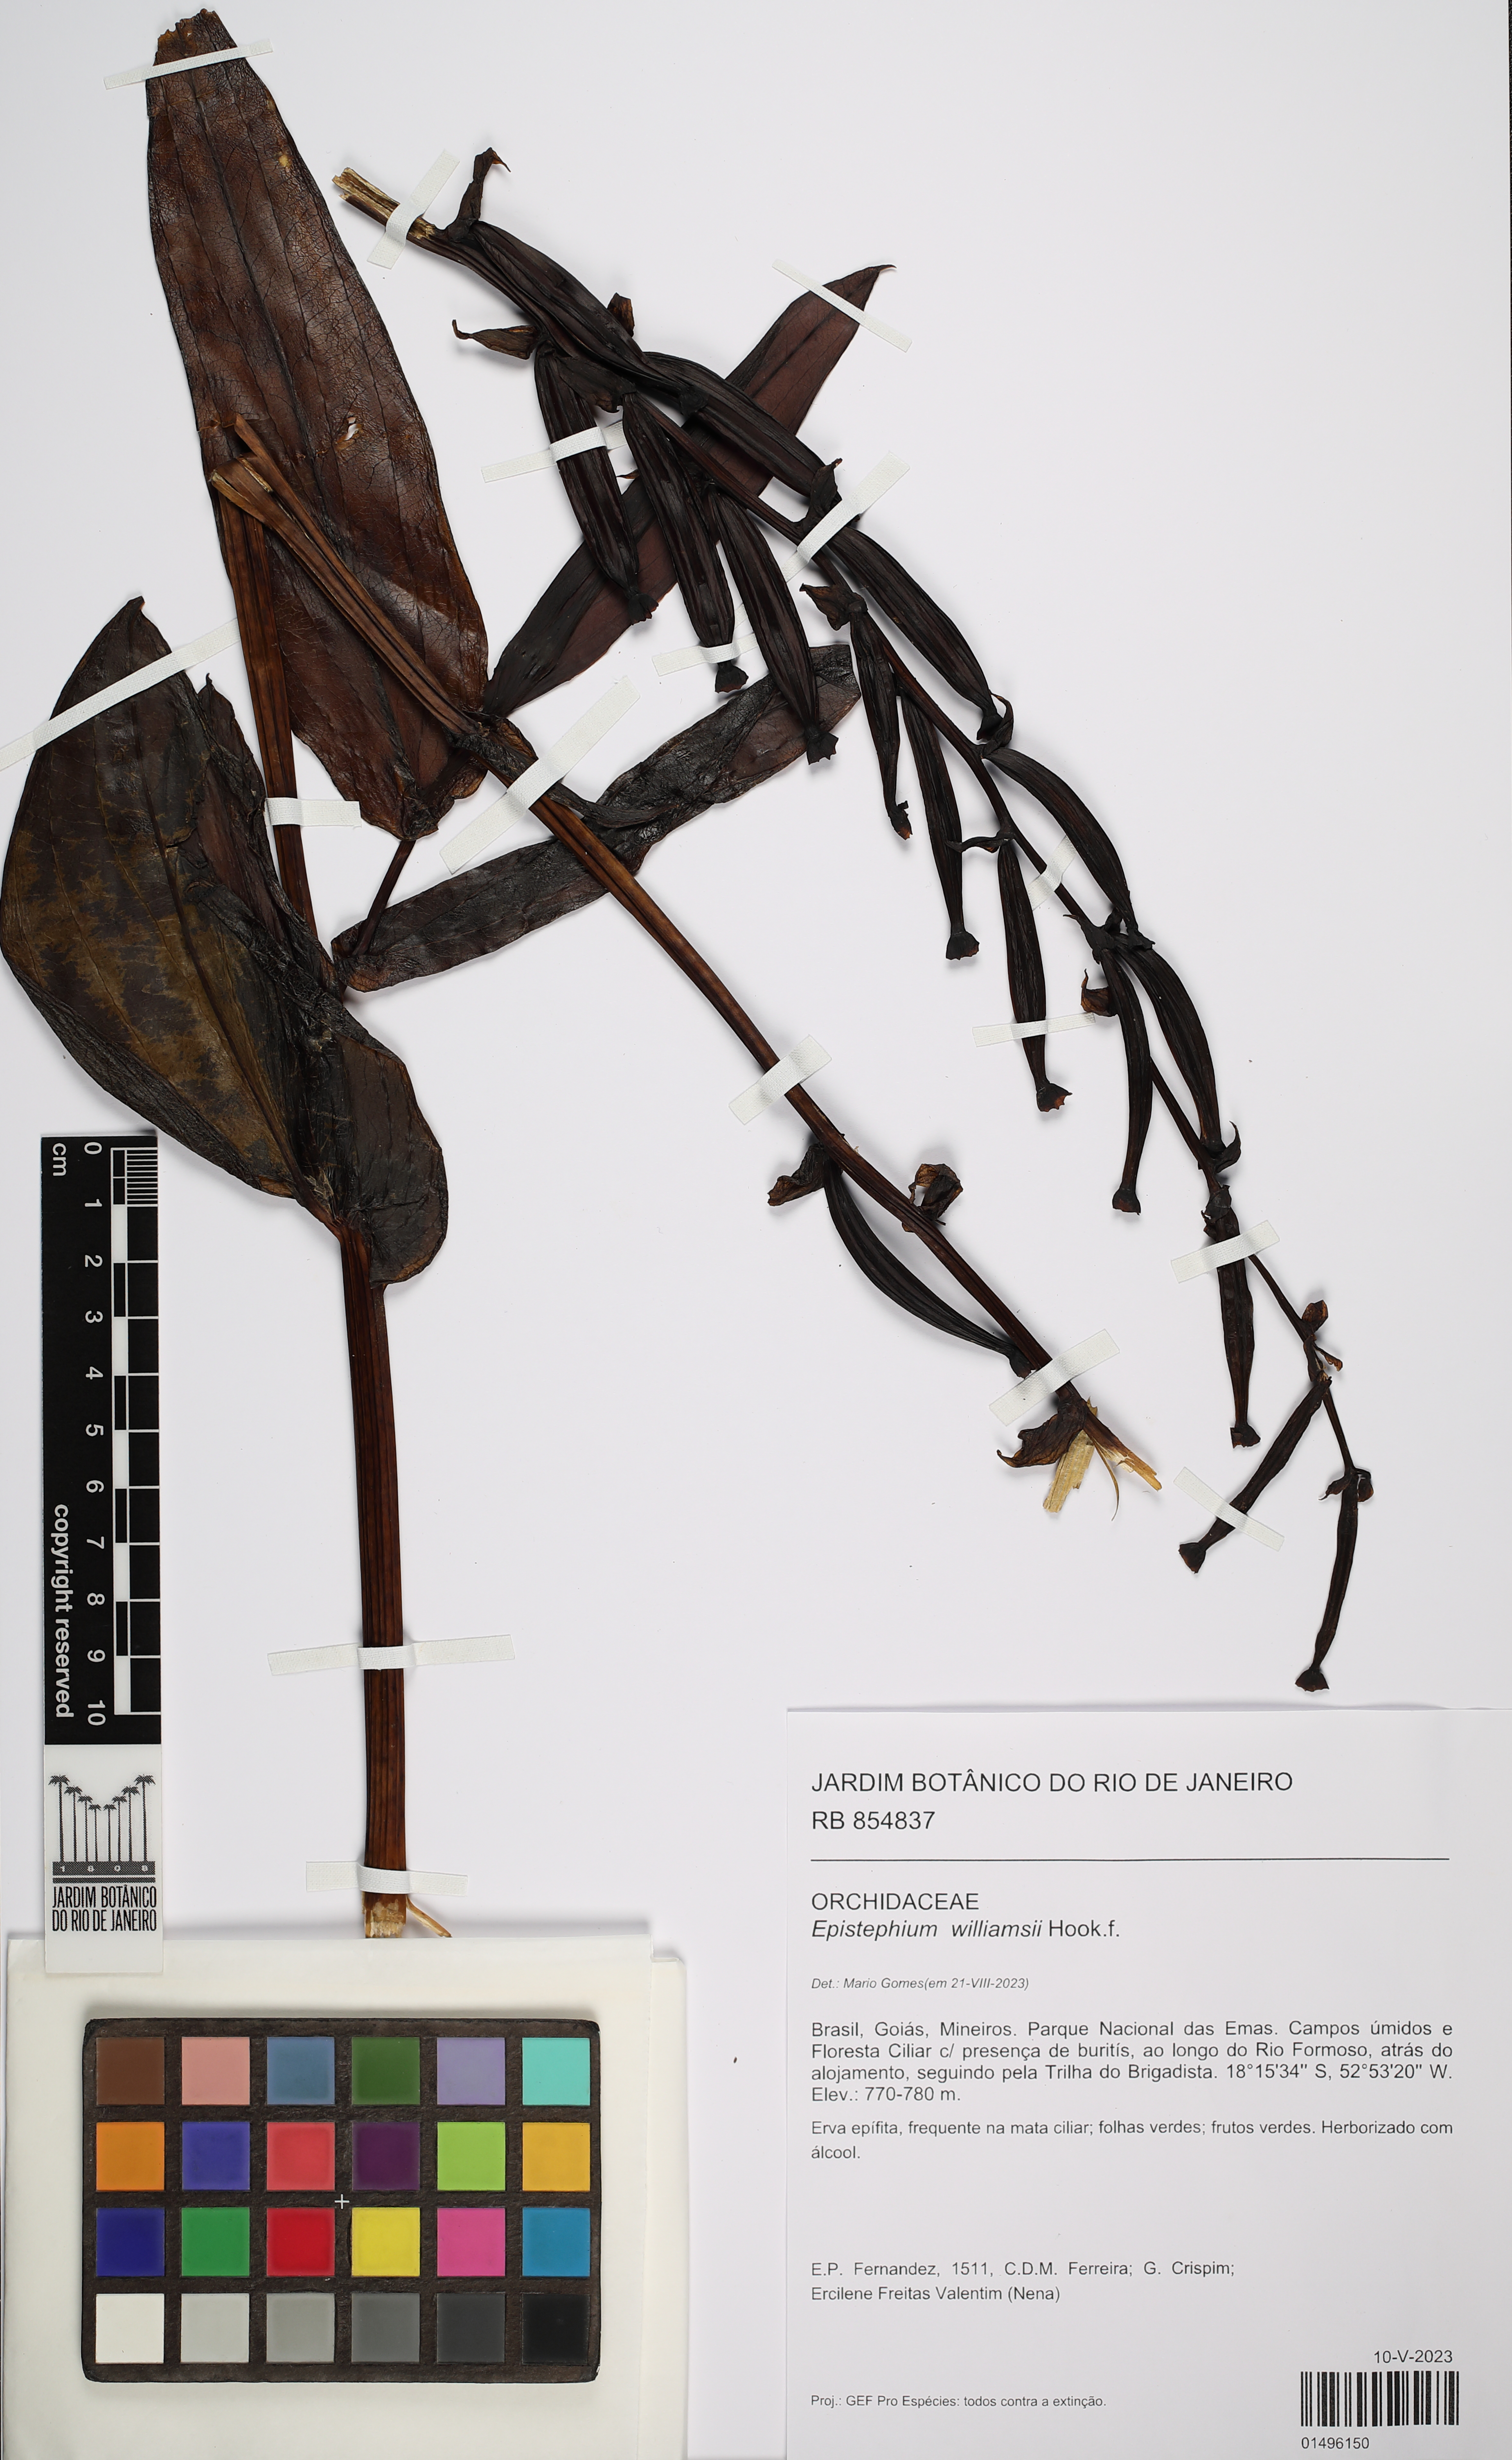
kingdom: Plantae
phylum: Tracheophyta
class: Liliopsida
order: Asparagales
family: Orchidaceae
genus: Epistephium
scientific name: Epistephium williamsii
